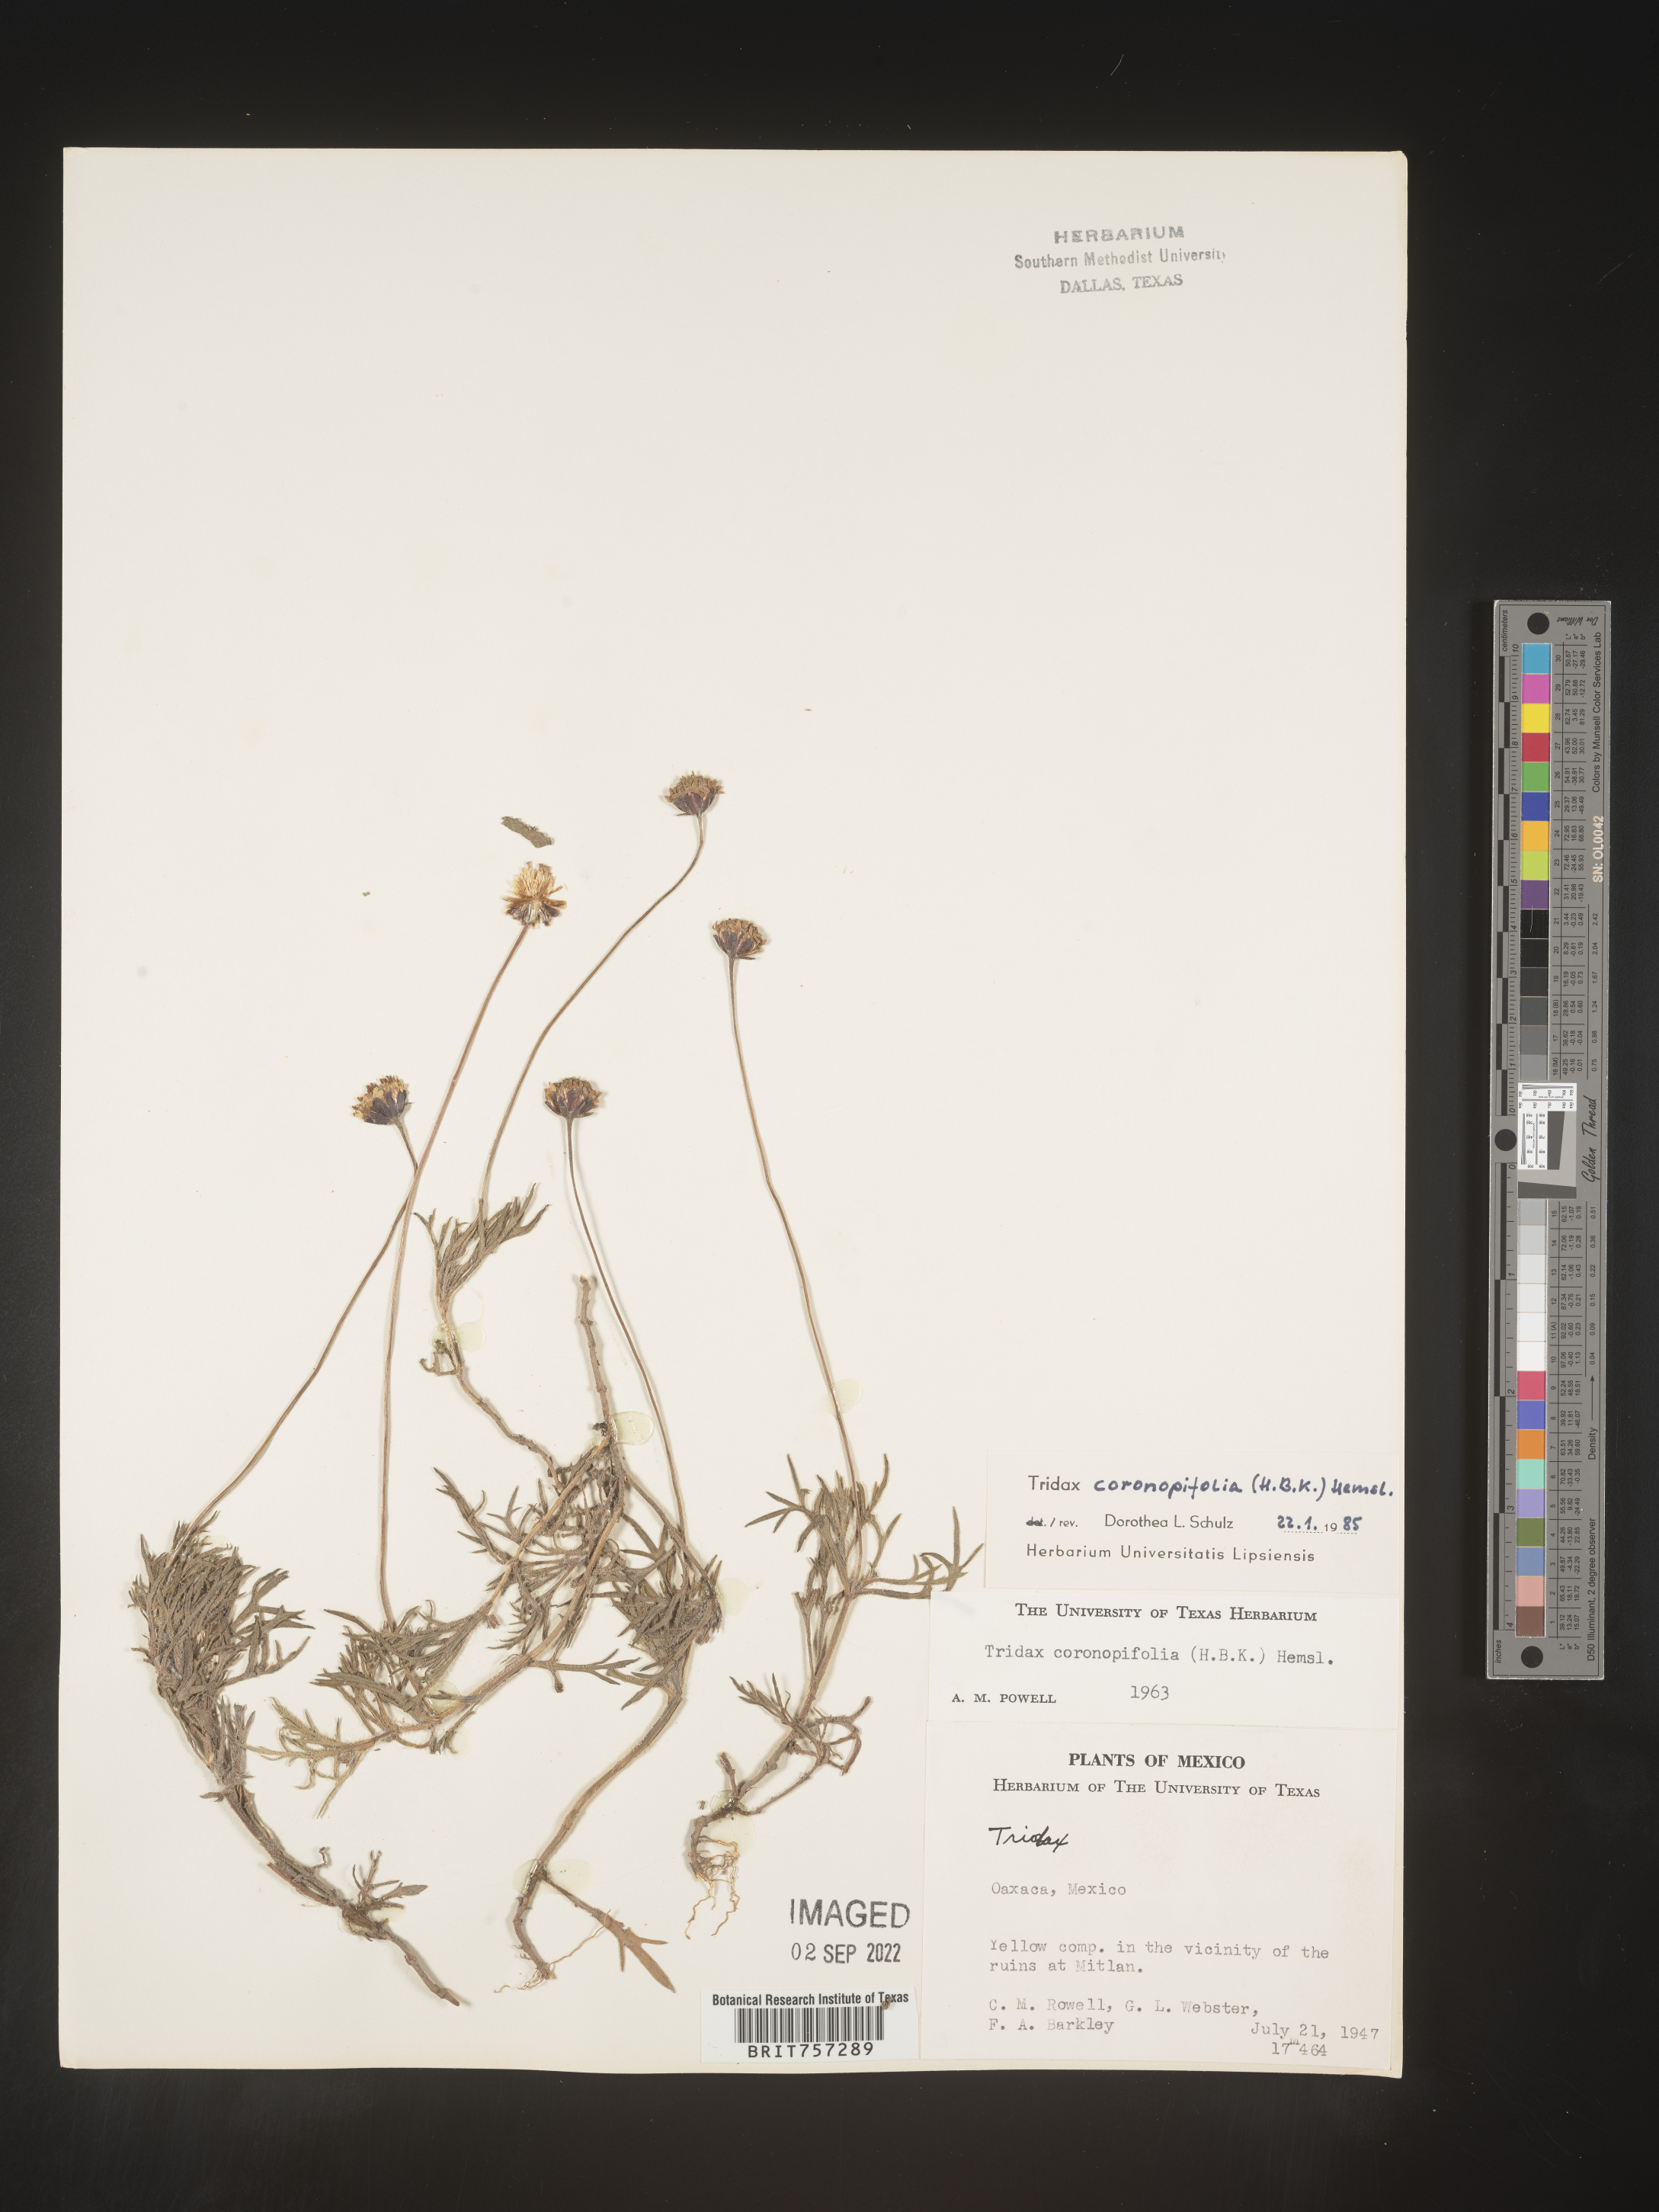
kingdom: Plantae
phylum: Tracheophyta
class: Magnoliopsida
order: Asterales
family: Asteraceae
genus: Tridax
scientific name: Tridax
